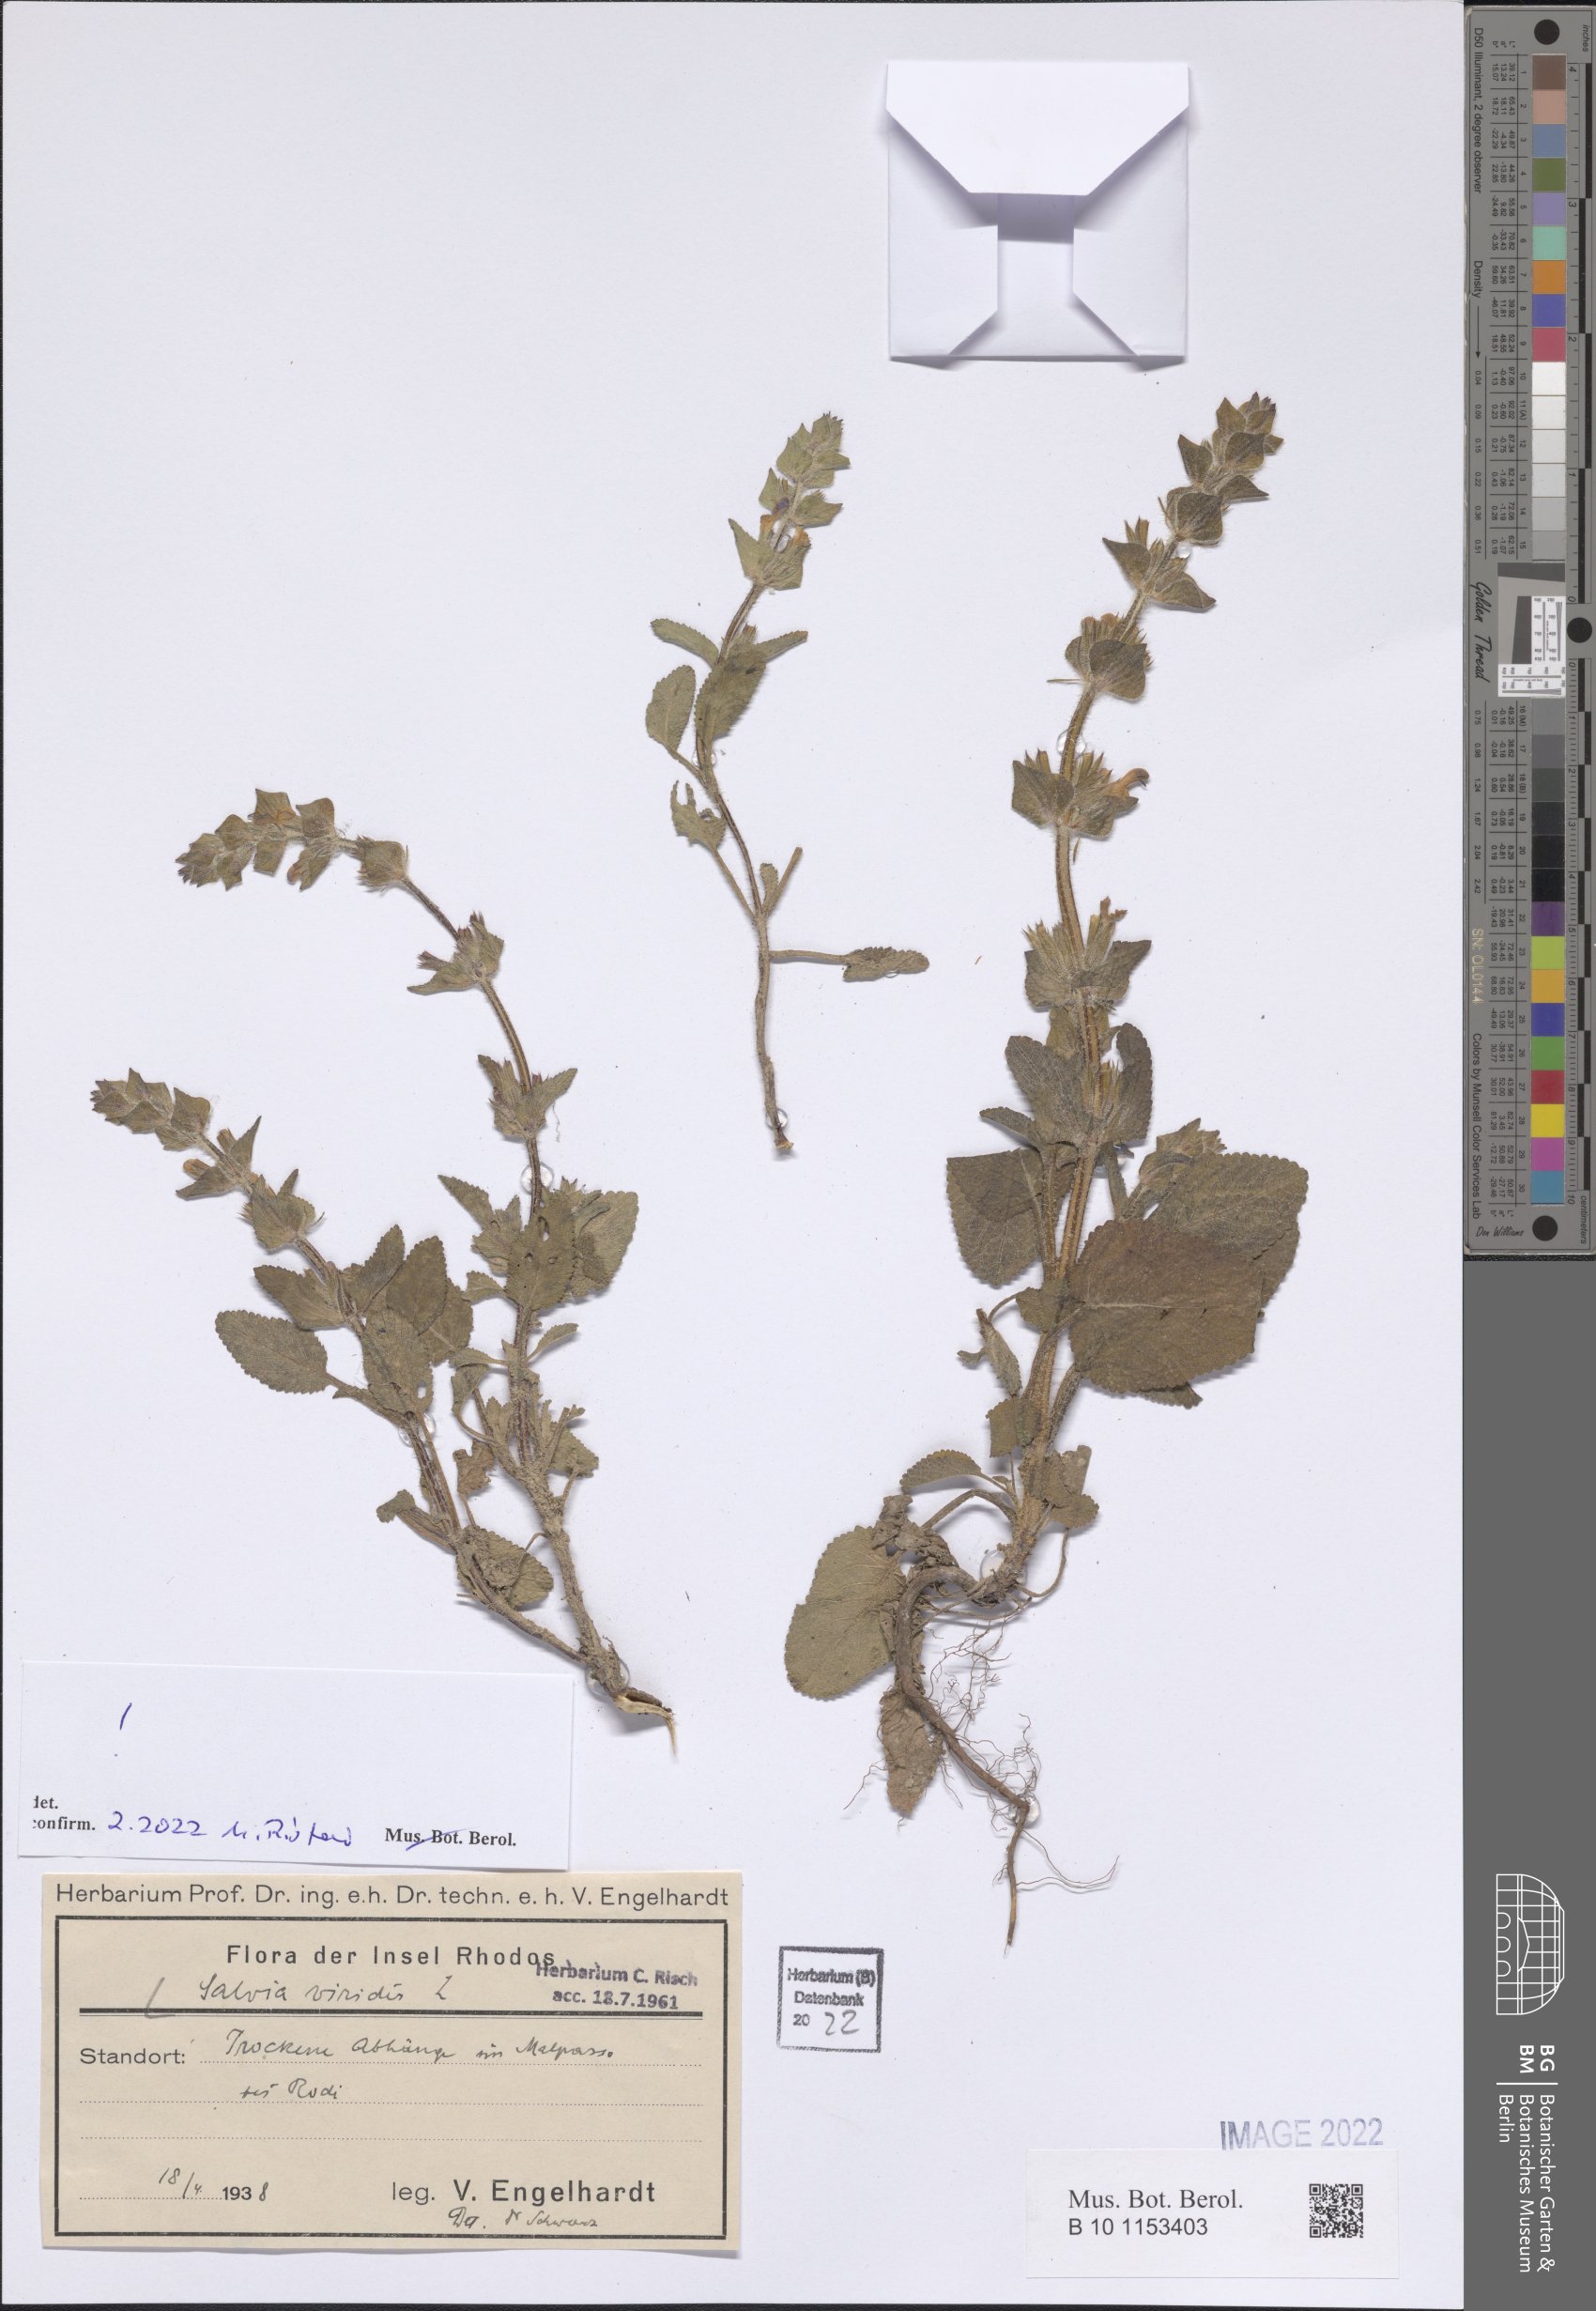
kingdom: Plantae
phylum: Tracheophyta
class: Magnoliopsida
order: Lamiales
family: Lamiaceae
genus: Salvia
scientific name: Salvia viridis
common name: Annual clary
